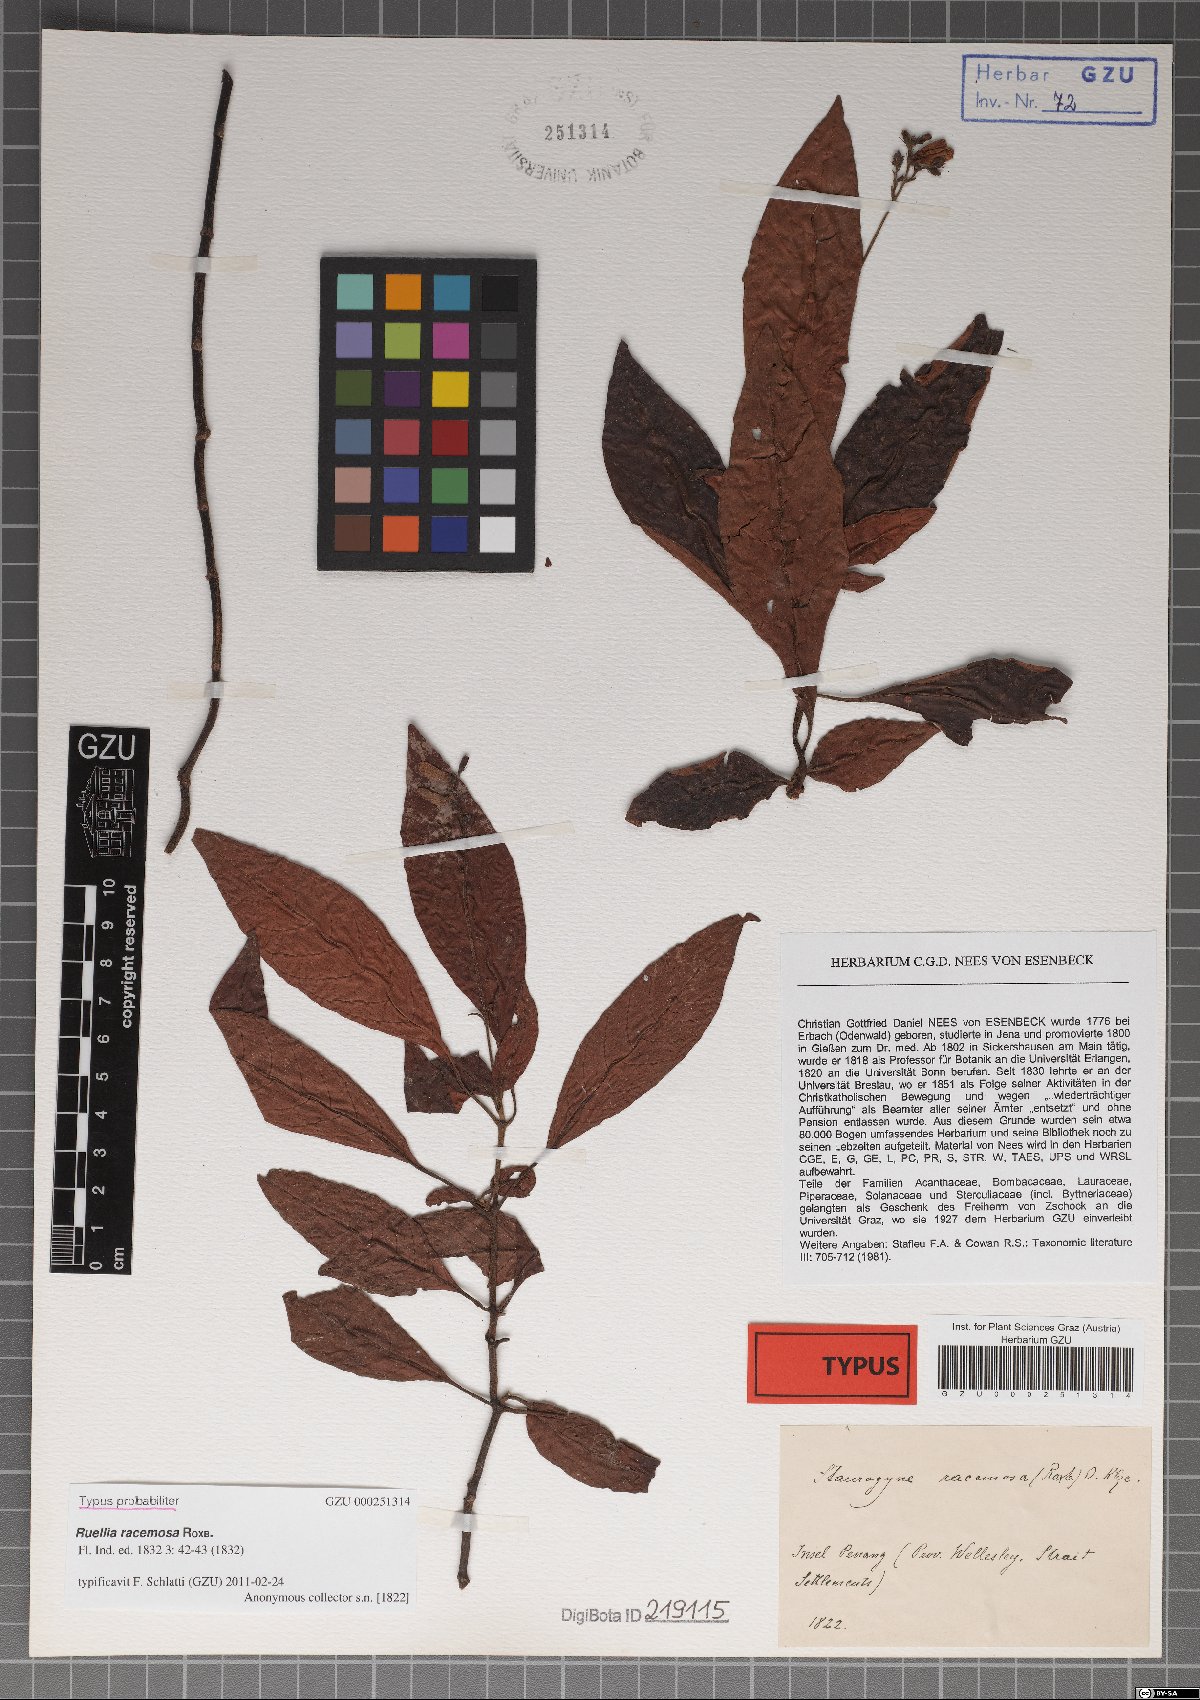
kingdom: Plantae
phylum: Tracheophyta
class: Magnoliopsida
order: Lamiales
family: Acanthaceae
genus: Staurogyne
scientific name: Staurogyne racemosa
